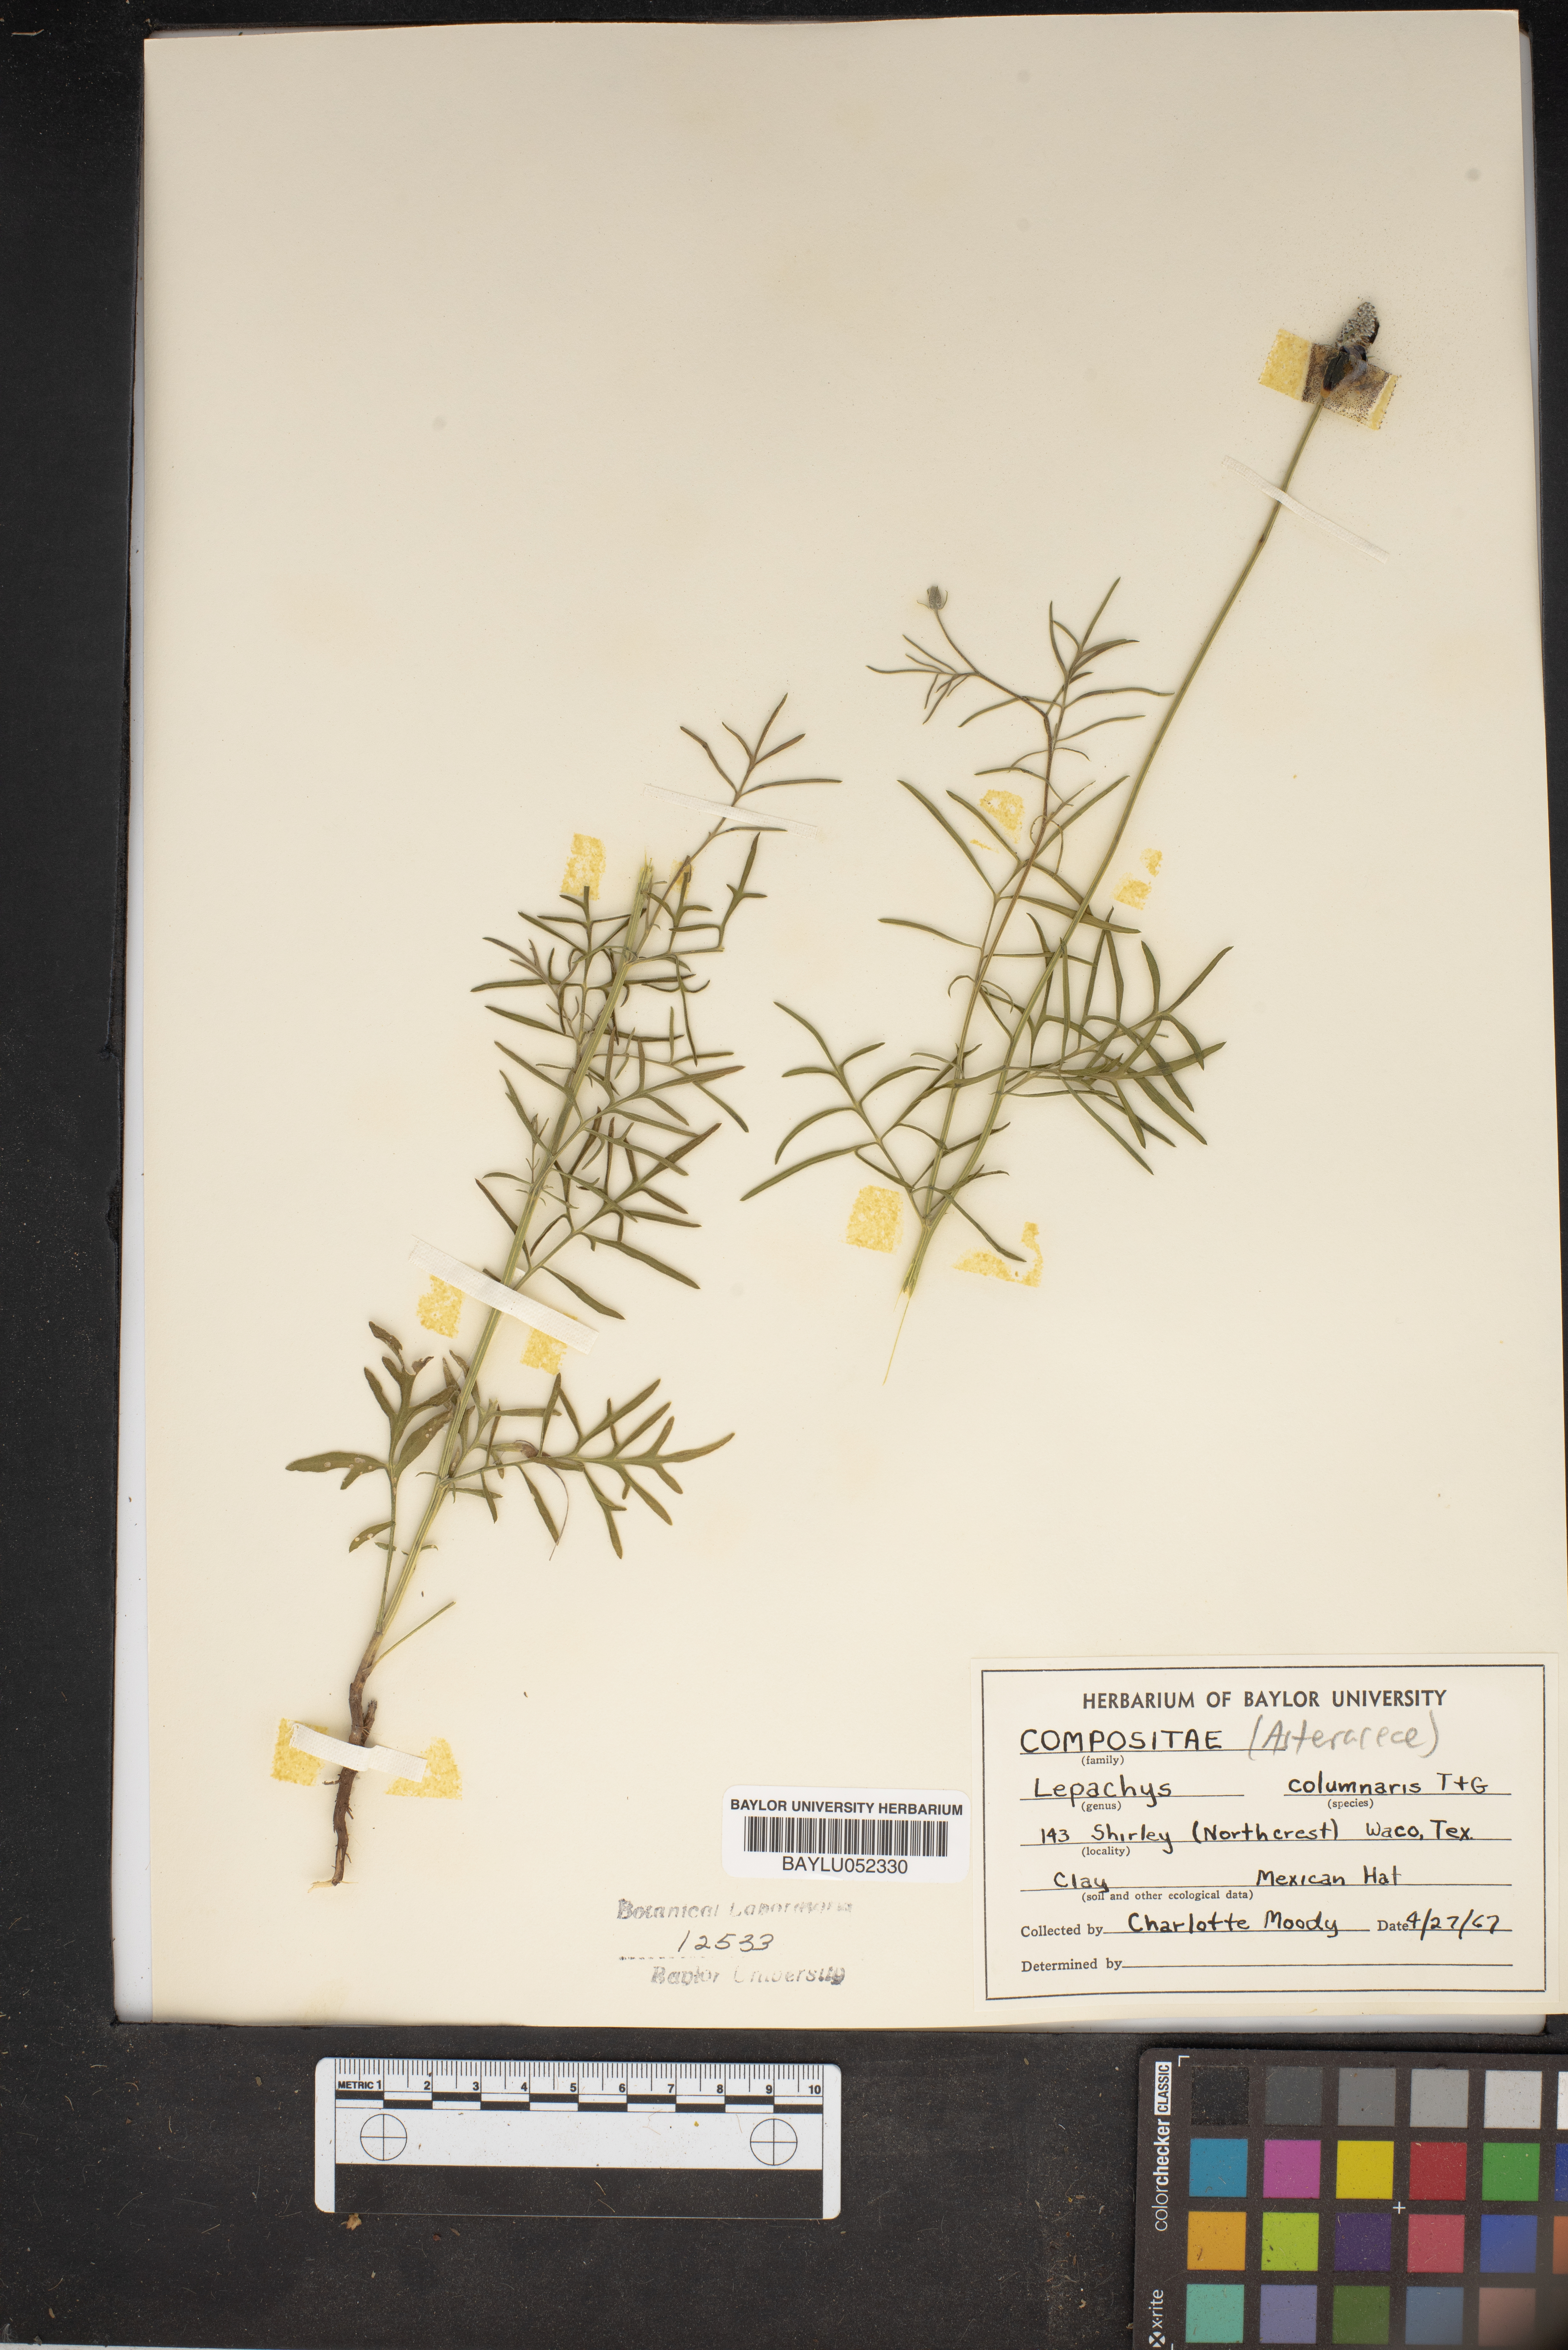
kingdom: Plantae
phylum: Tracheophyta
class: Magnoliopsida
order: Asterales
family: Asteraceae
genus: Ratibida
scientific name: Ratibida columnifera
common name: Prairie coneflower
